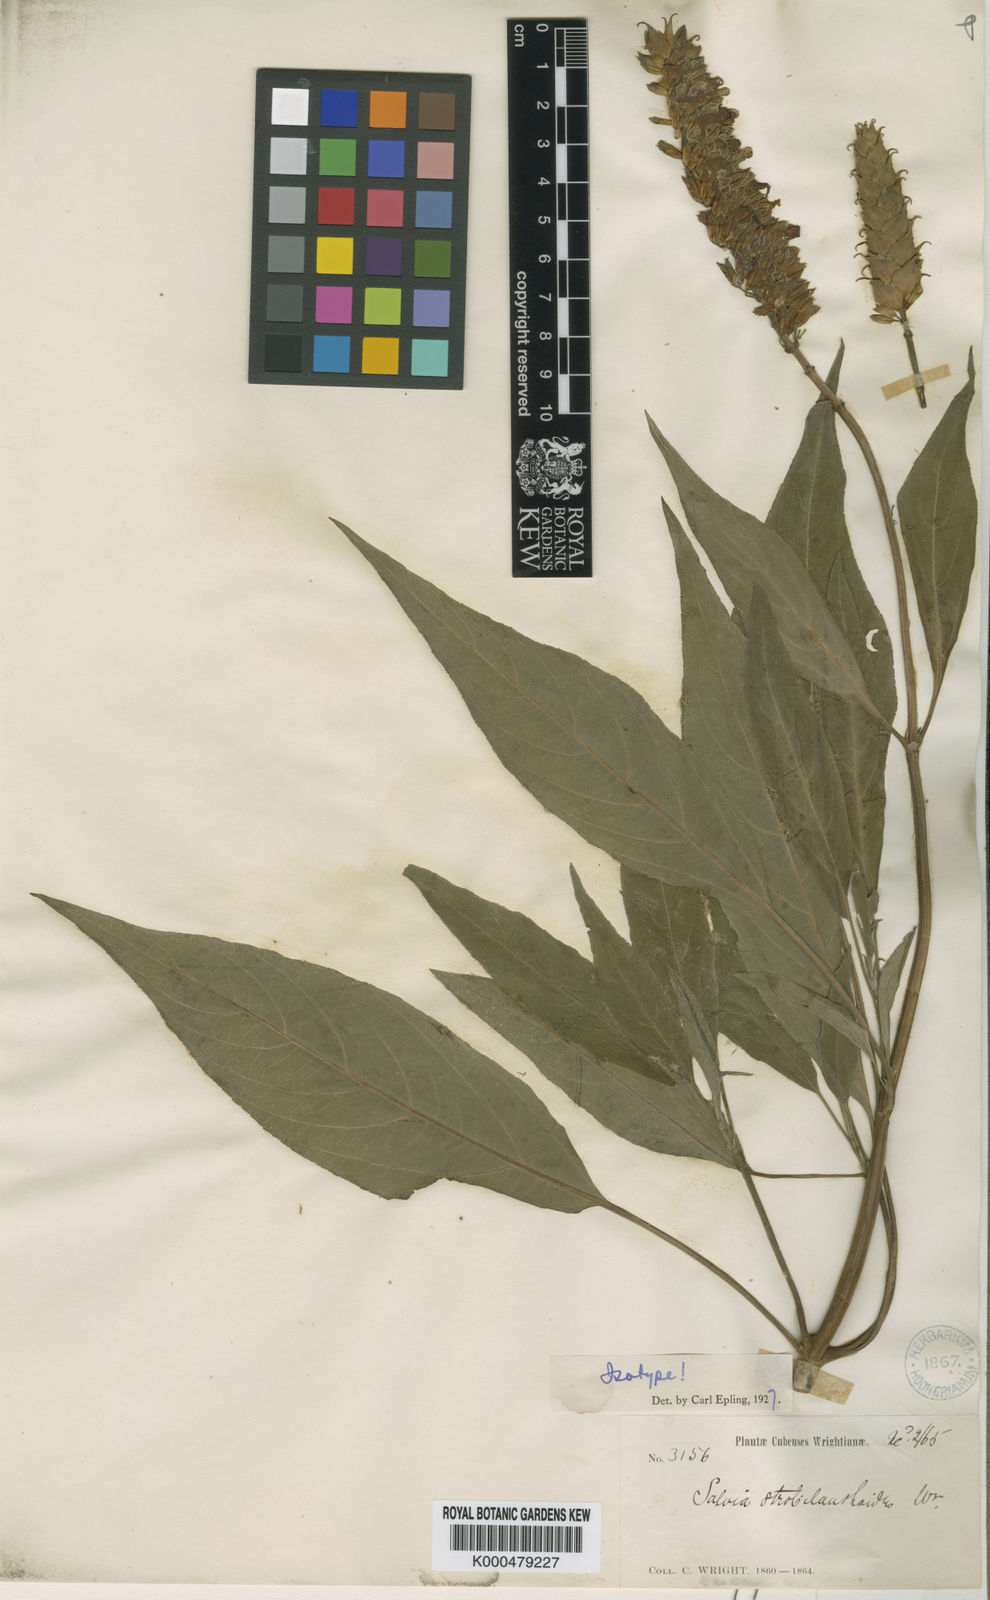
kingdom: Plantae
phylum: Tracheophyta
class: Magnoliopsida
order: Lamiales
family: Lamiaceae
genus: Salvia
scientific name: Salvia
